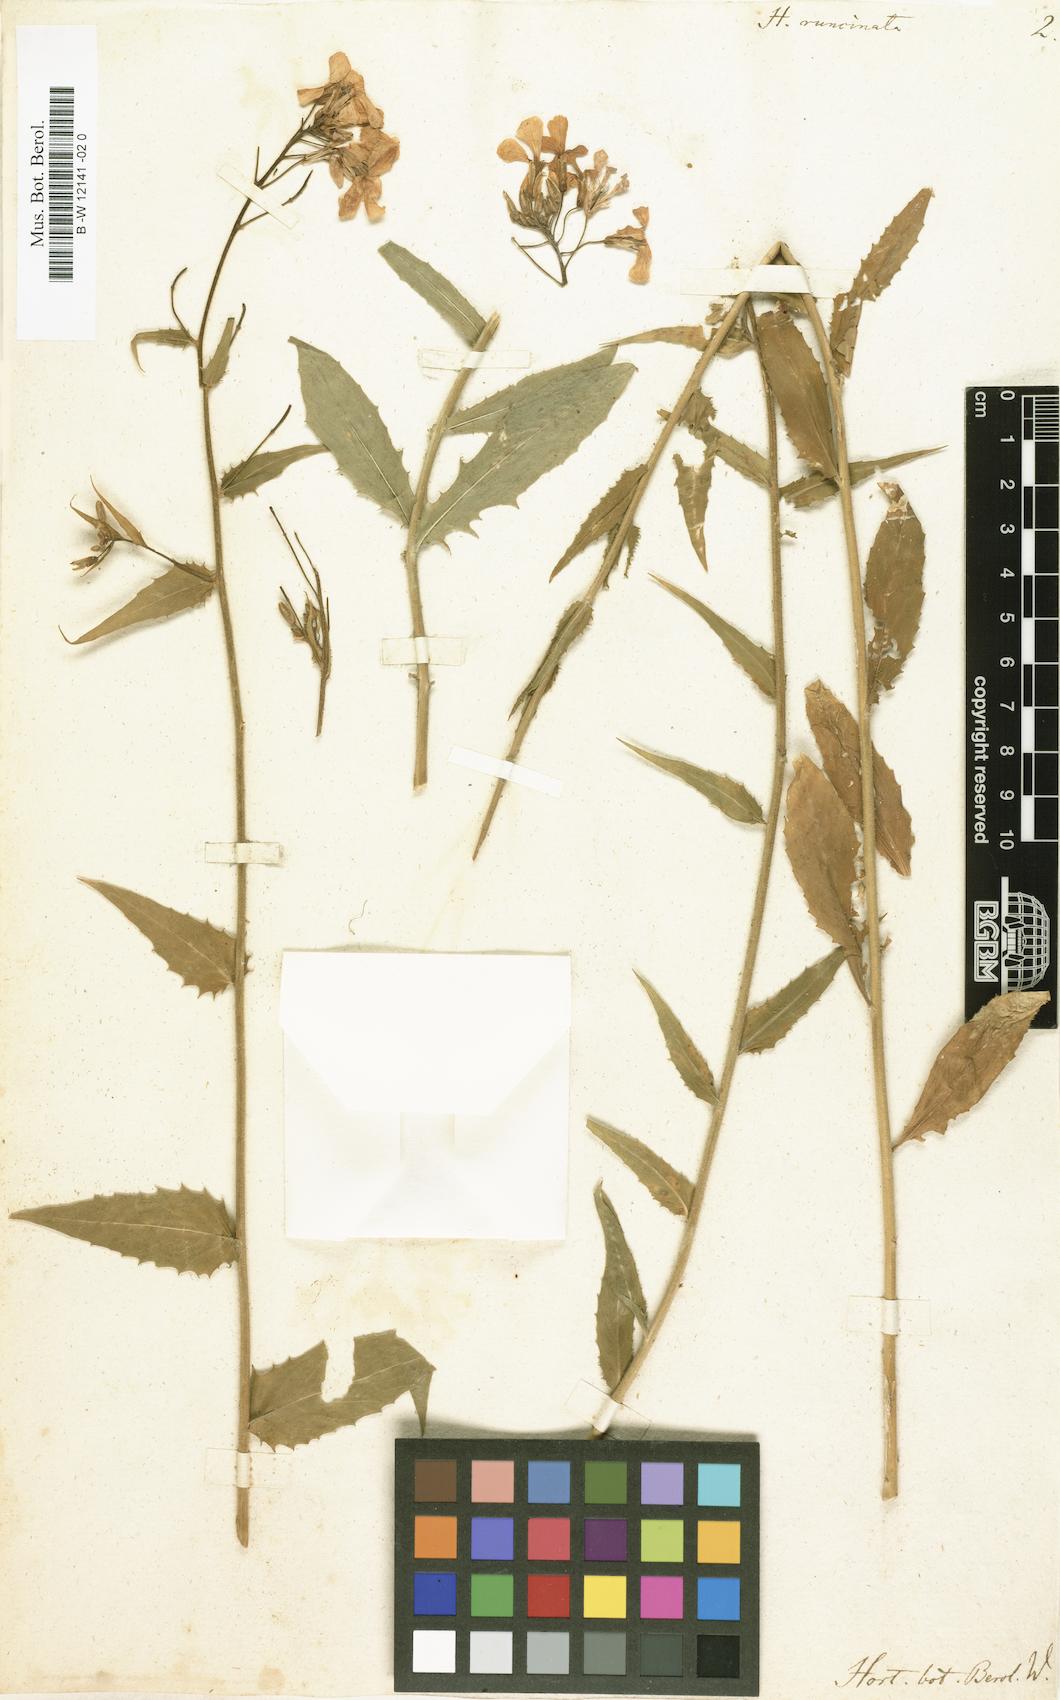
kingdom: Plantae
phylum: Tracheophyta
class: Magnoliopsida
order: Brassicales
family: Brassicaceae
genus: Hesperis
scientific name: Hesperis sylvestris
